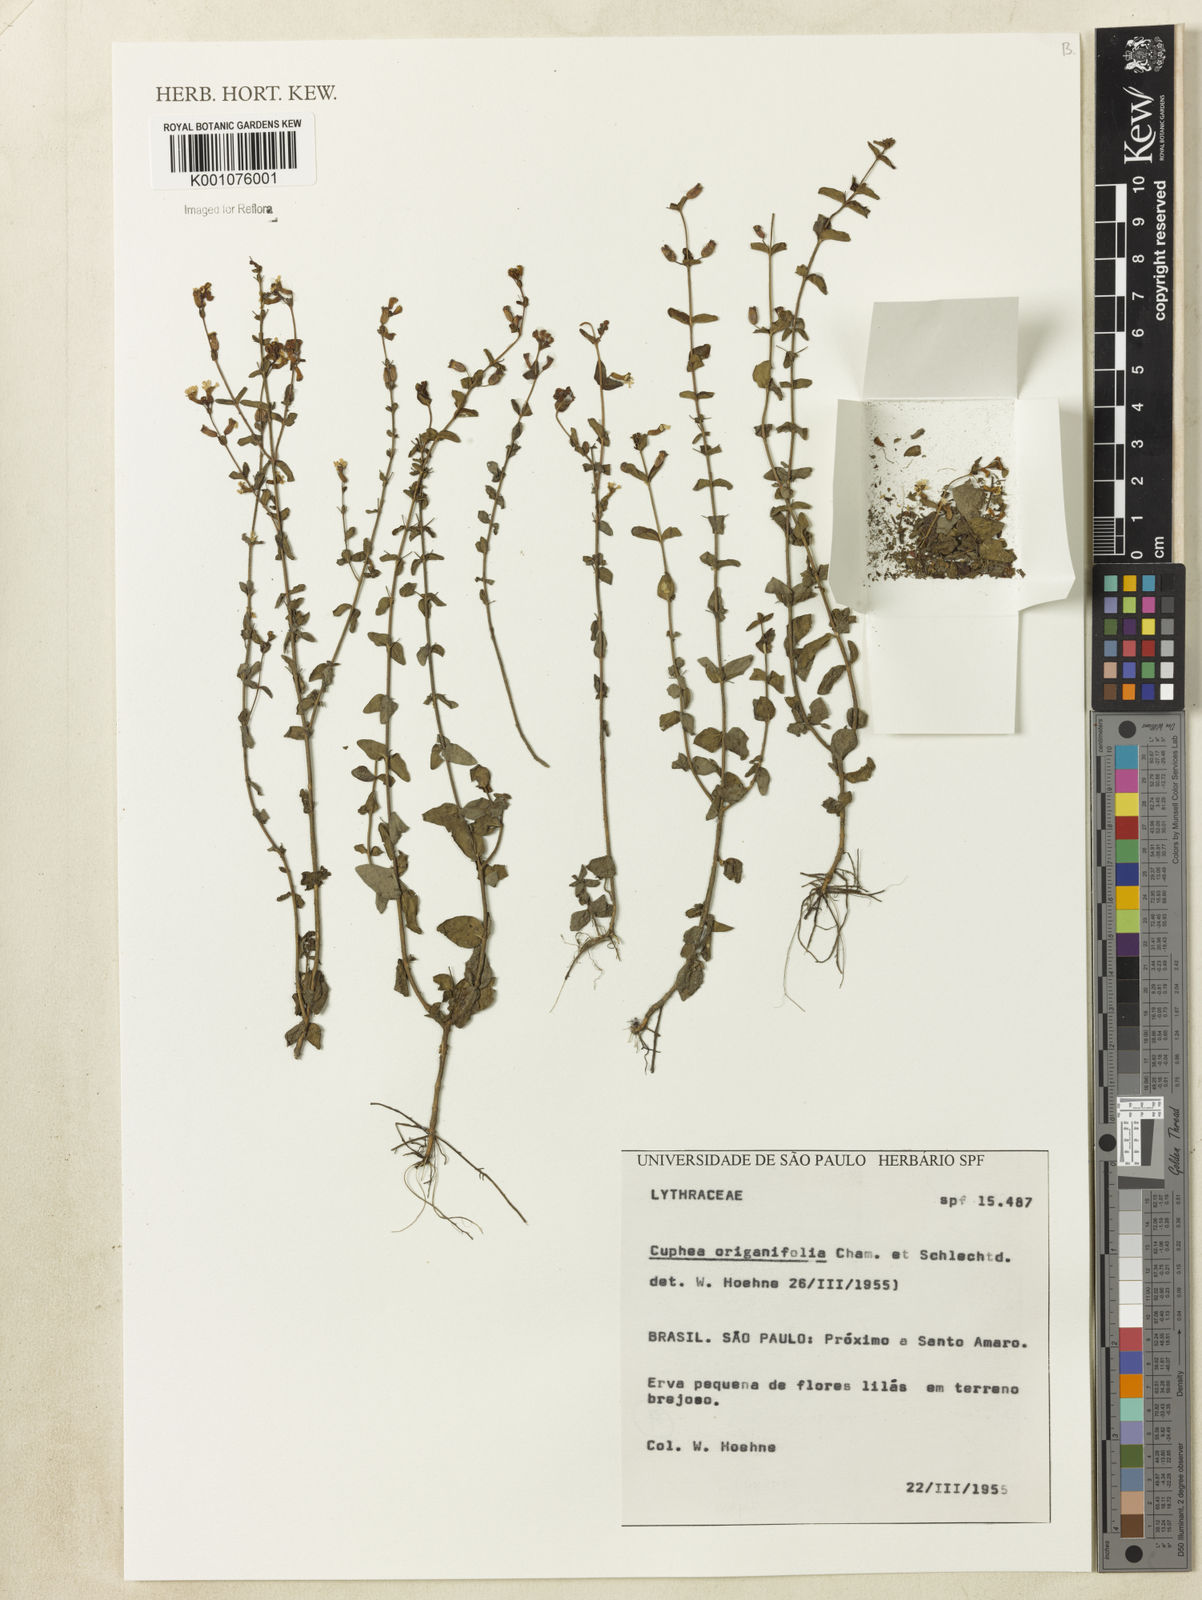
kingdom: Plantae
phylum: Tracheophyta
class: Magnoliopsida
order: Myrtales
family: Lythraceae
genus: Cuphea
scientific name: Cuphea racemosa
